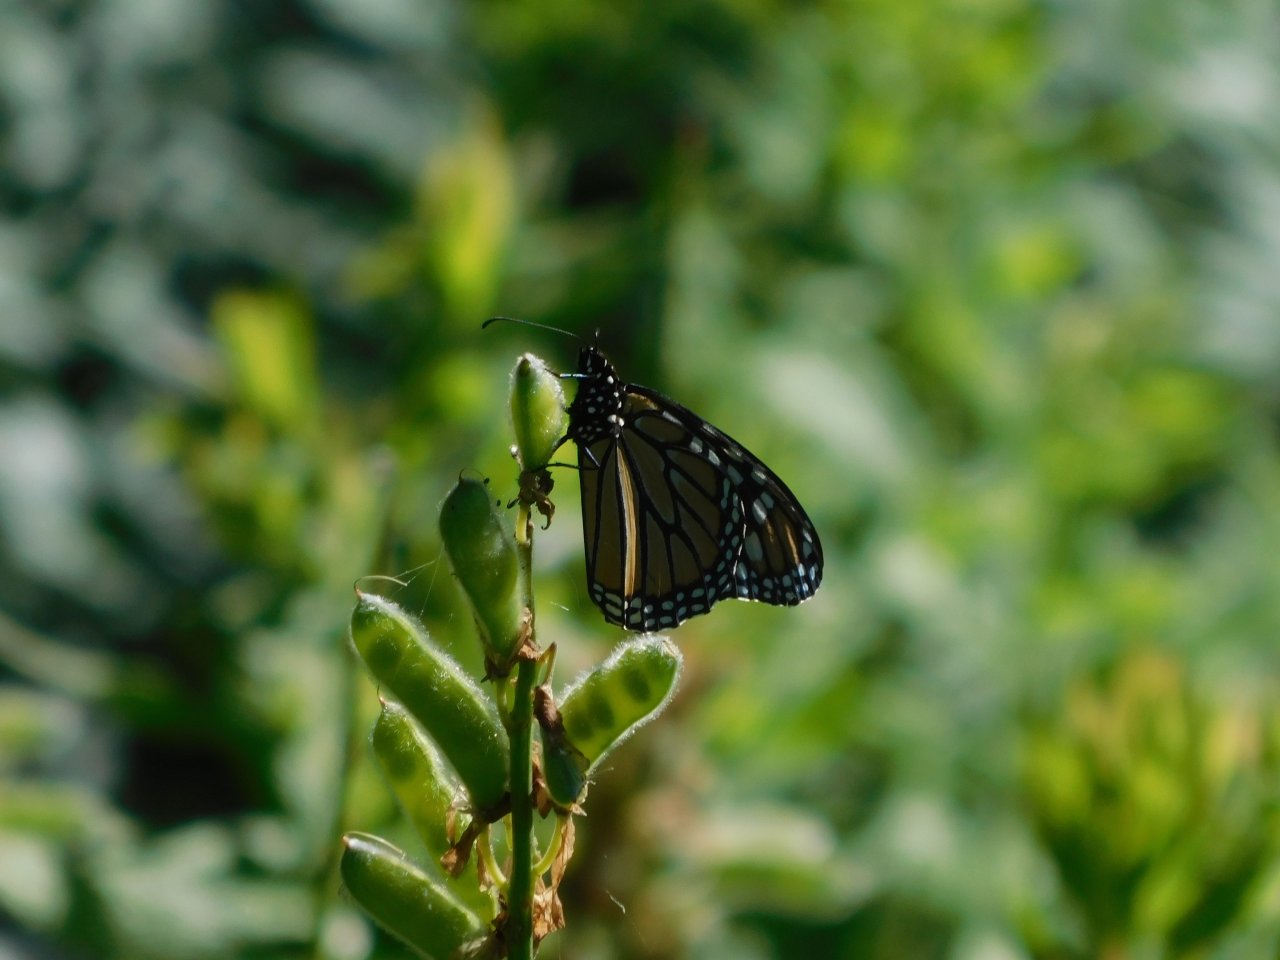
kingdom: Animalia
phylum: Arthropoda
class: Insecta
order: Lepidoptera
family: Nymphalidae
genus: Danaus
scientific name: Danaus plexippus
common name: Monarch
